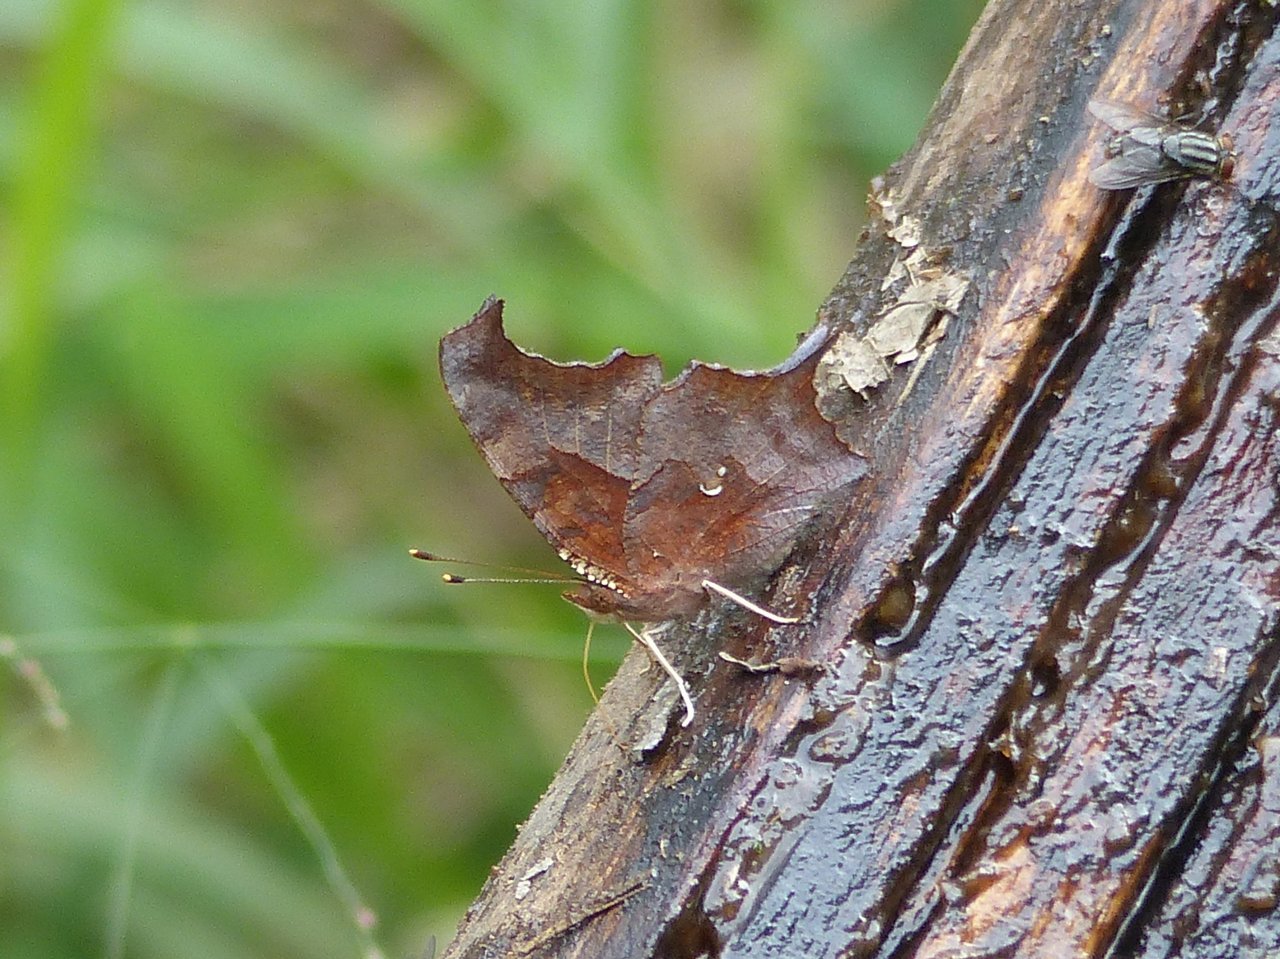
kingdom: Animalia
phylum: Arthropoda
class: Insecta
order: Lepidoptera
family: Nymphalidae
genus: Polygonia
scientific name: Polygonia interrogationis
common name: Question Mark
